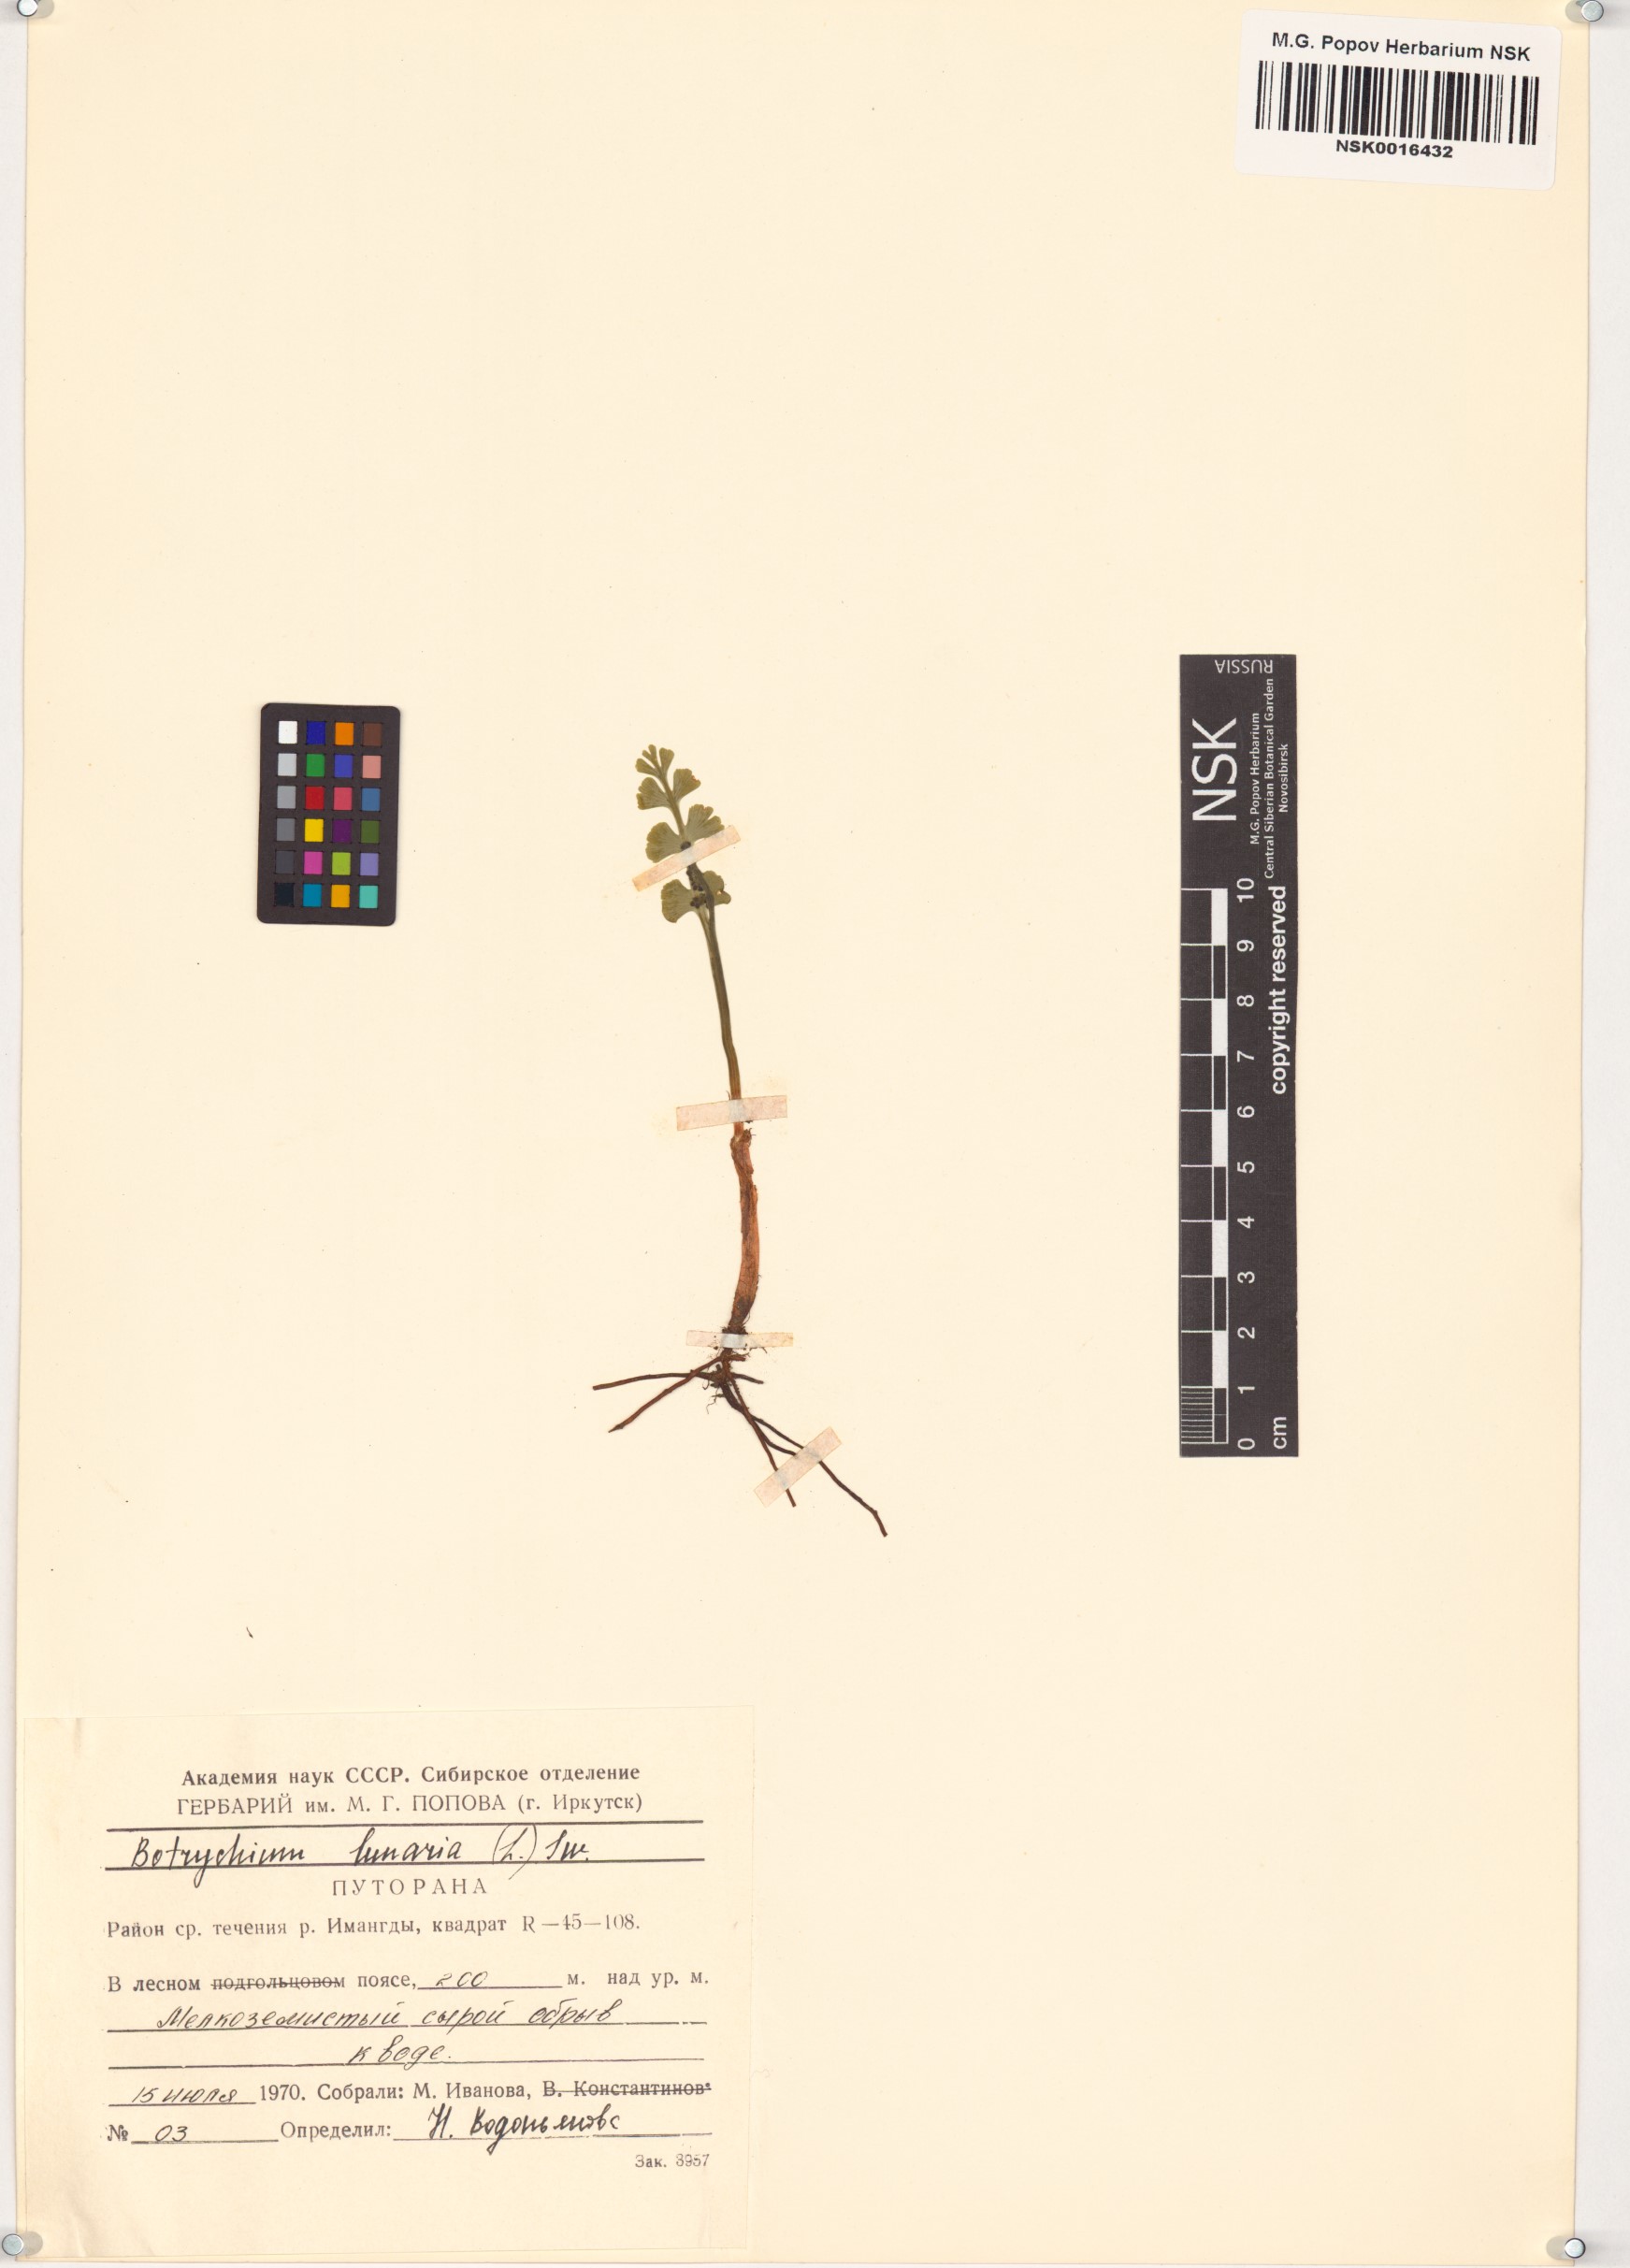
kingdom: Plantae
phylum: Tracheophyta
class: Polypodiopsida
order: Ophioglossales
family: Ophioglossaceae
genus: Botrychium
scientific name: Botrychium lunaria
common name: Moonwort
